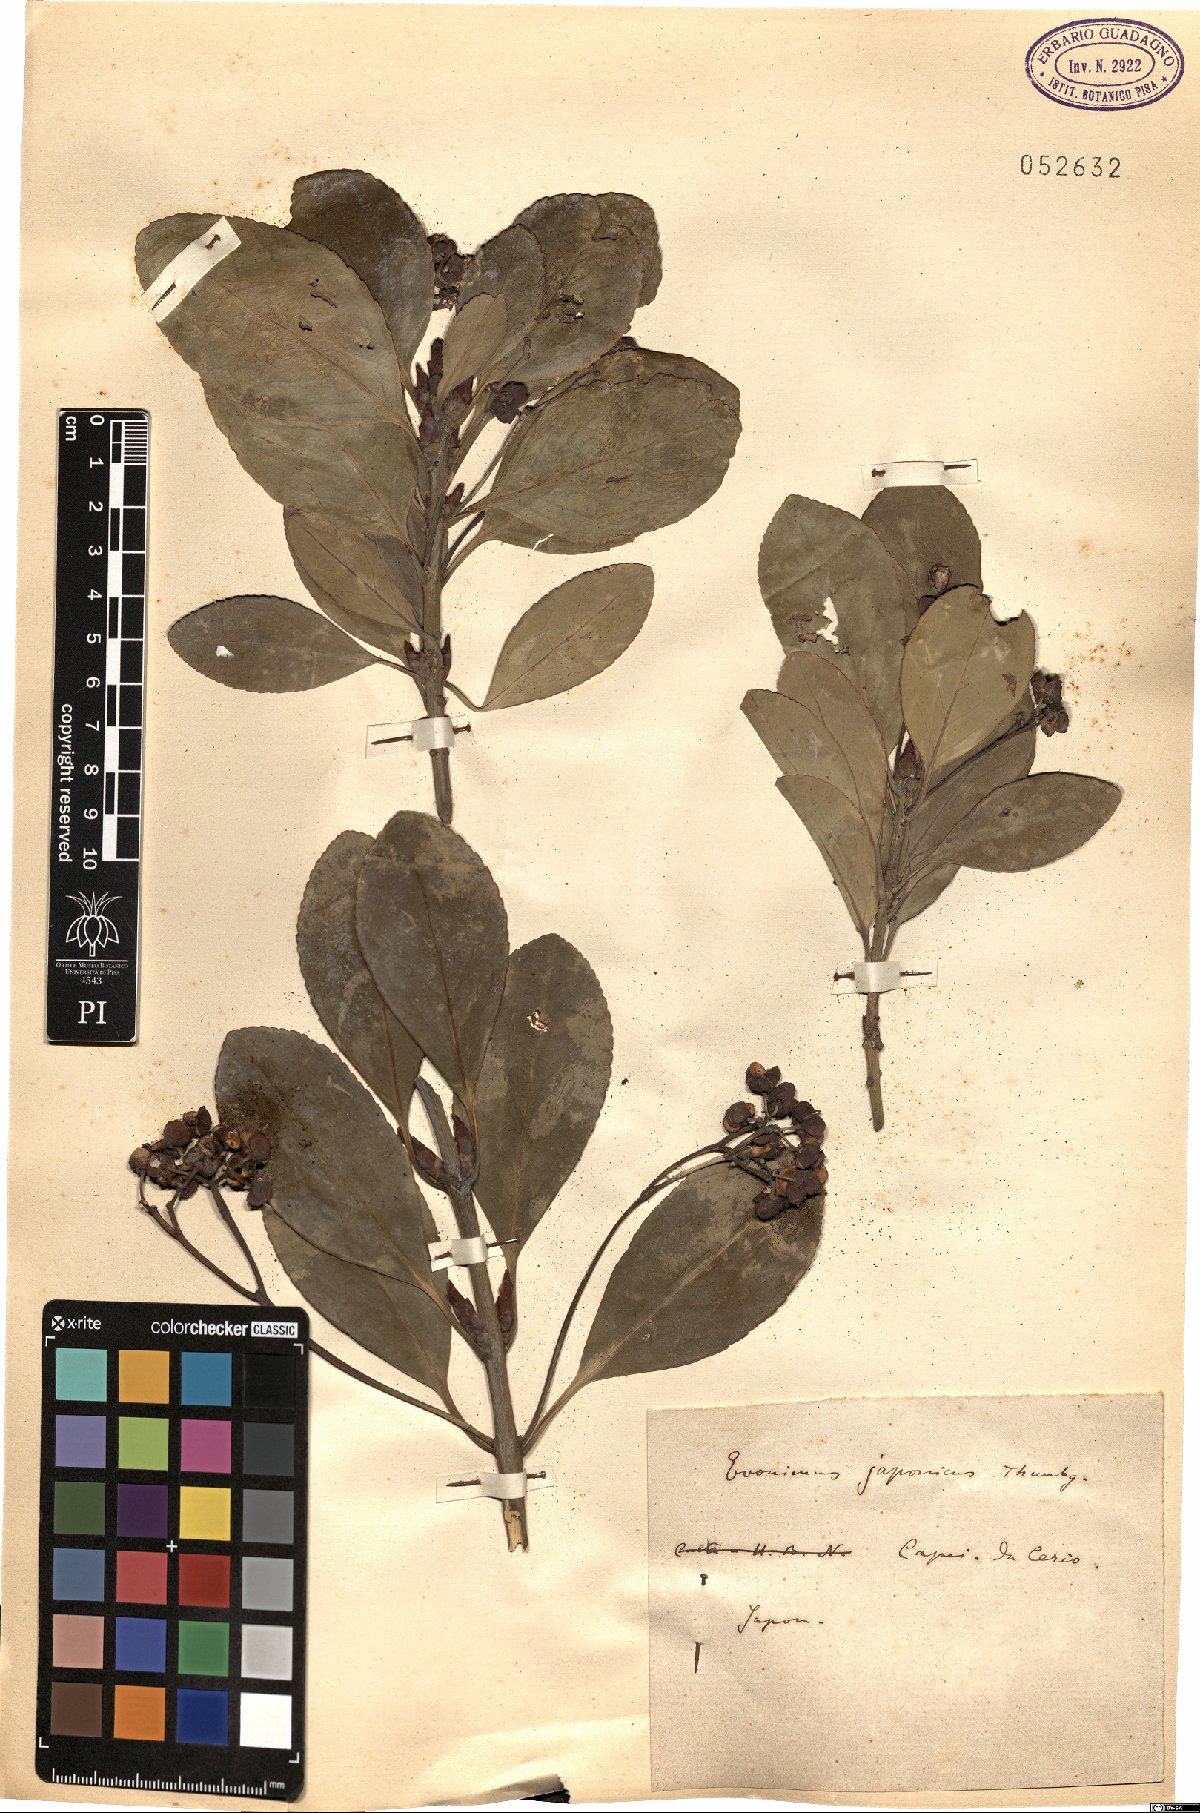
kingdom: Plantae
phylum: Tracheophyta
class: Magnoliopsida
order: Celastrales
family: Celastraceae
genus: Euonymus
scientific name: Euonymus fortunei
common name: Climbing euonymus
